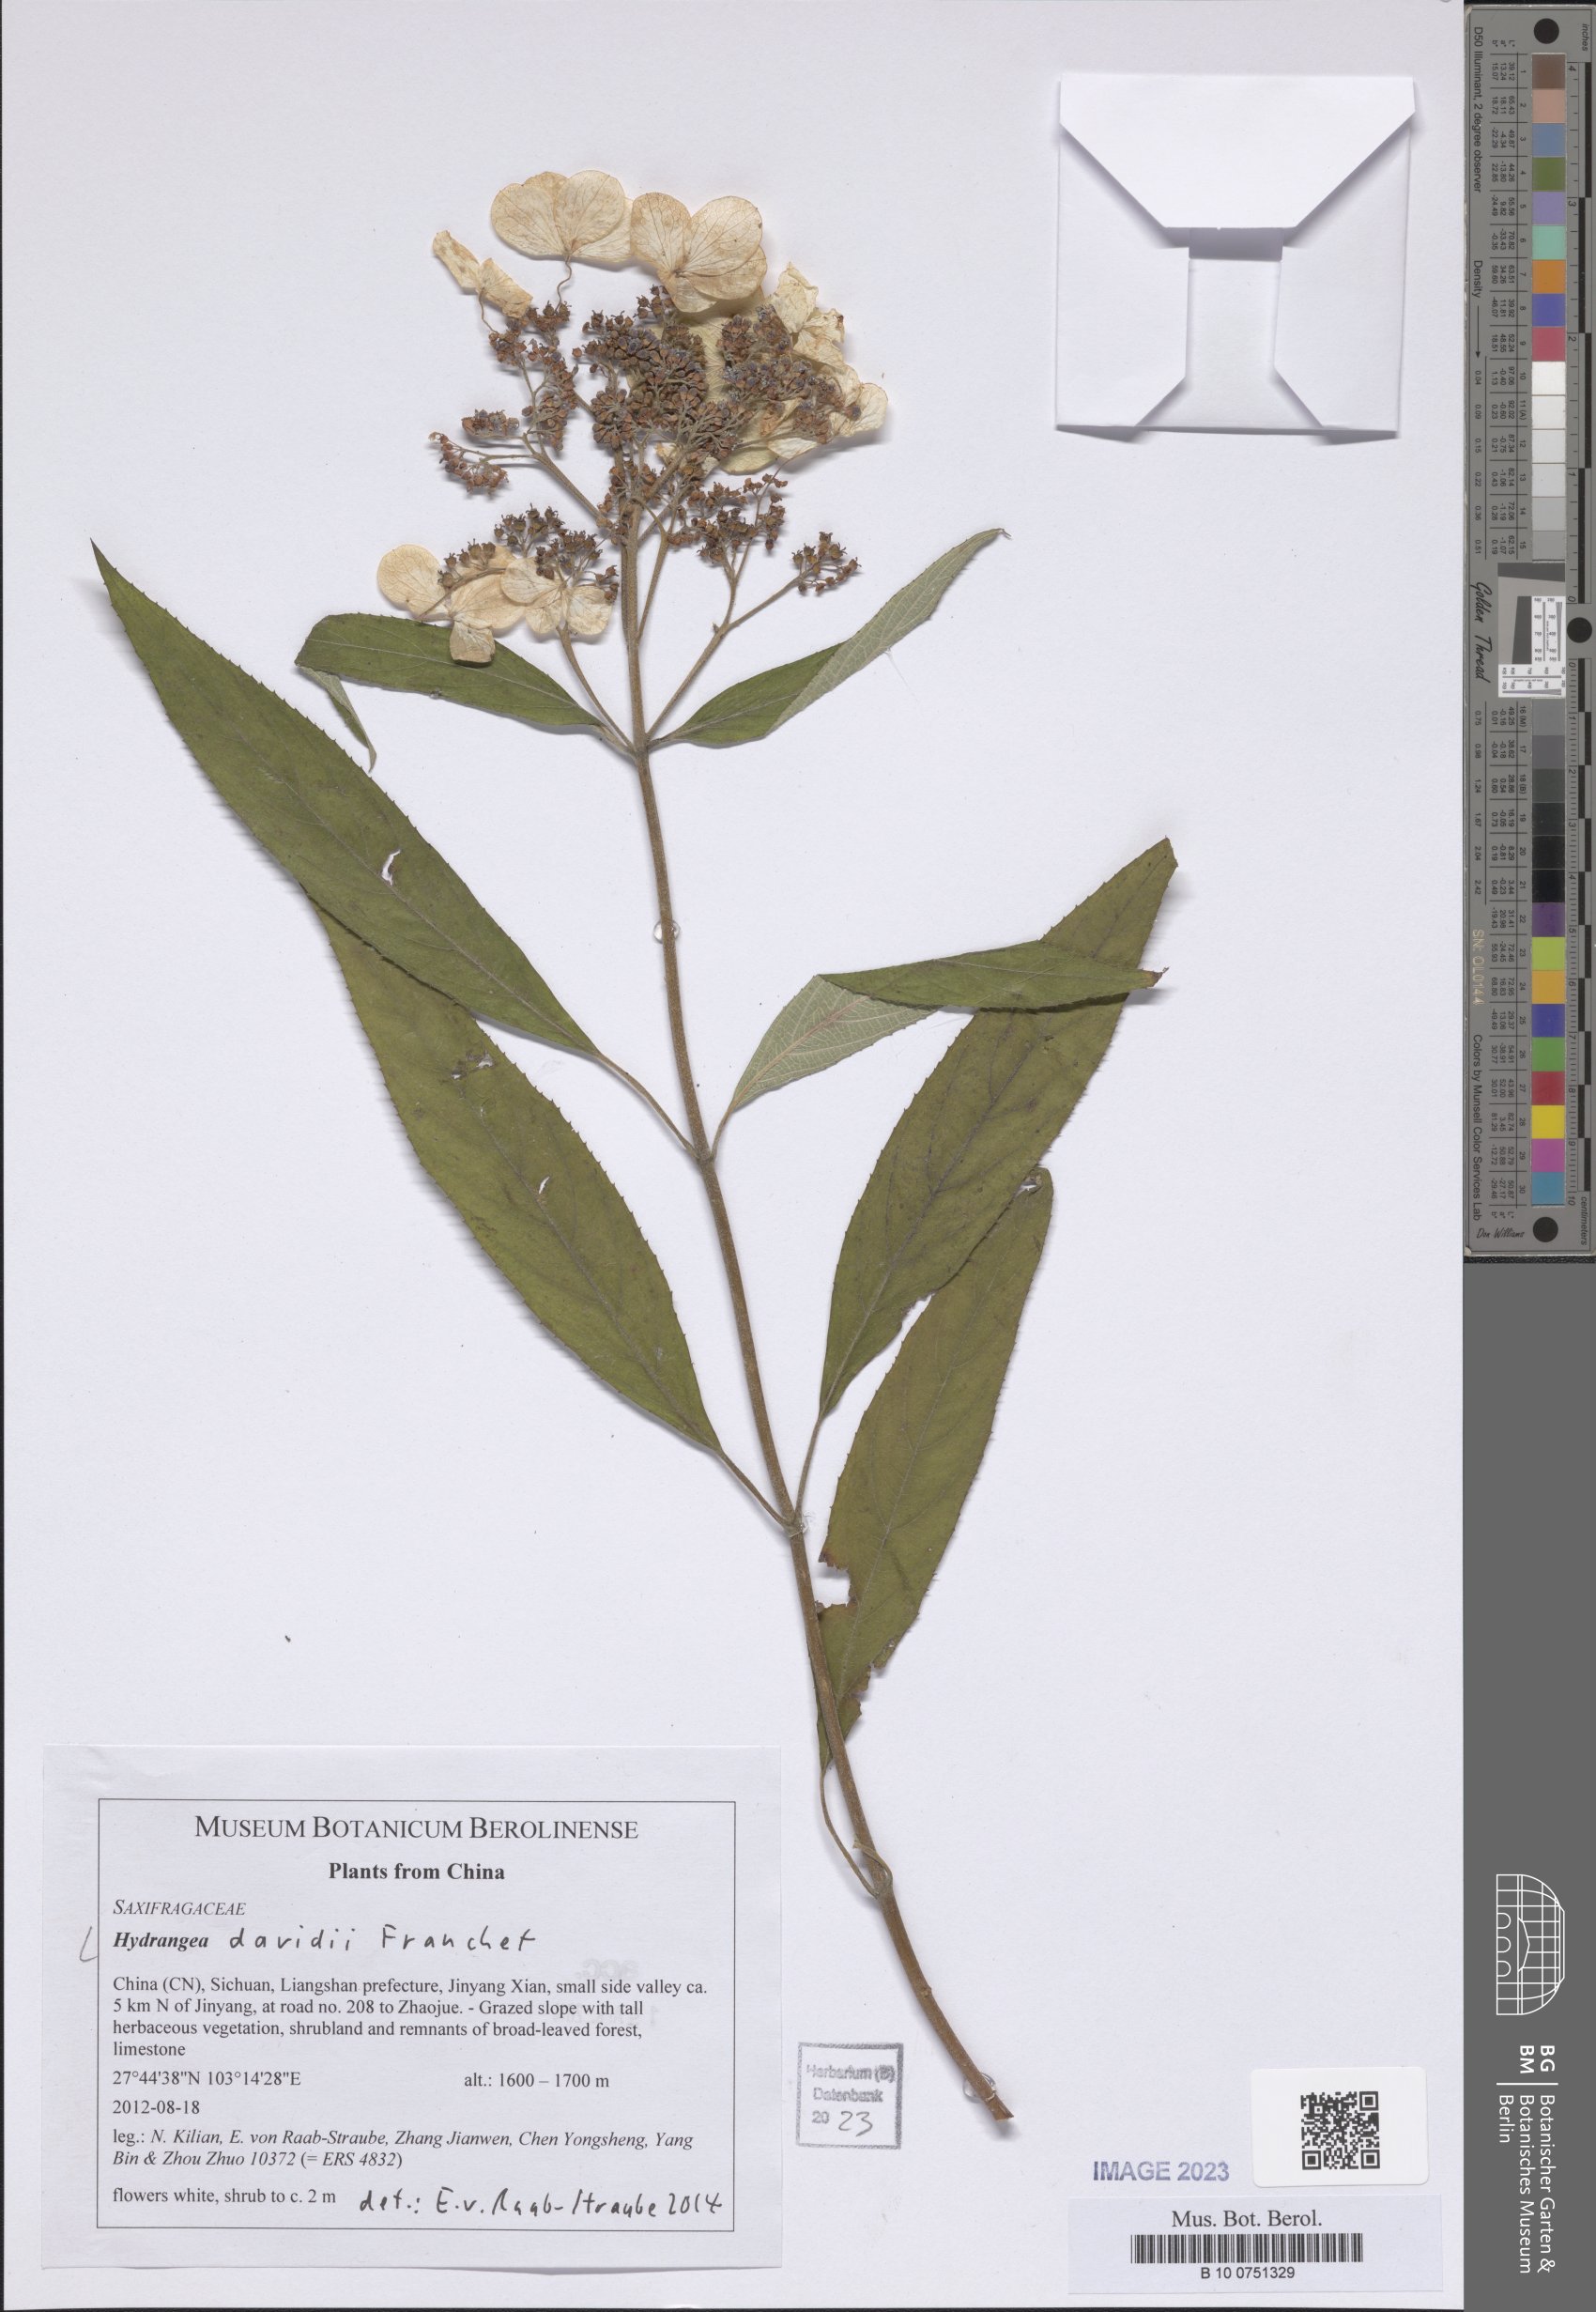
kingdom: Plantae
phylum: Tracheophyta
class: Magnoliopsida
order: Cornales
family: Hydrangeaceae
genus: Hydrangea
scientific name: Hydrangea davidii
